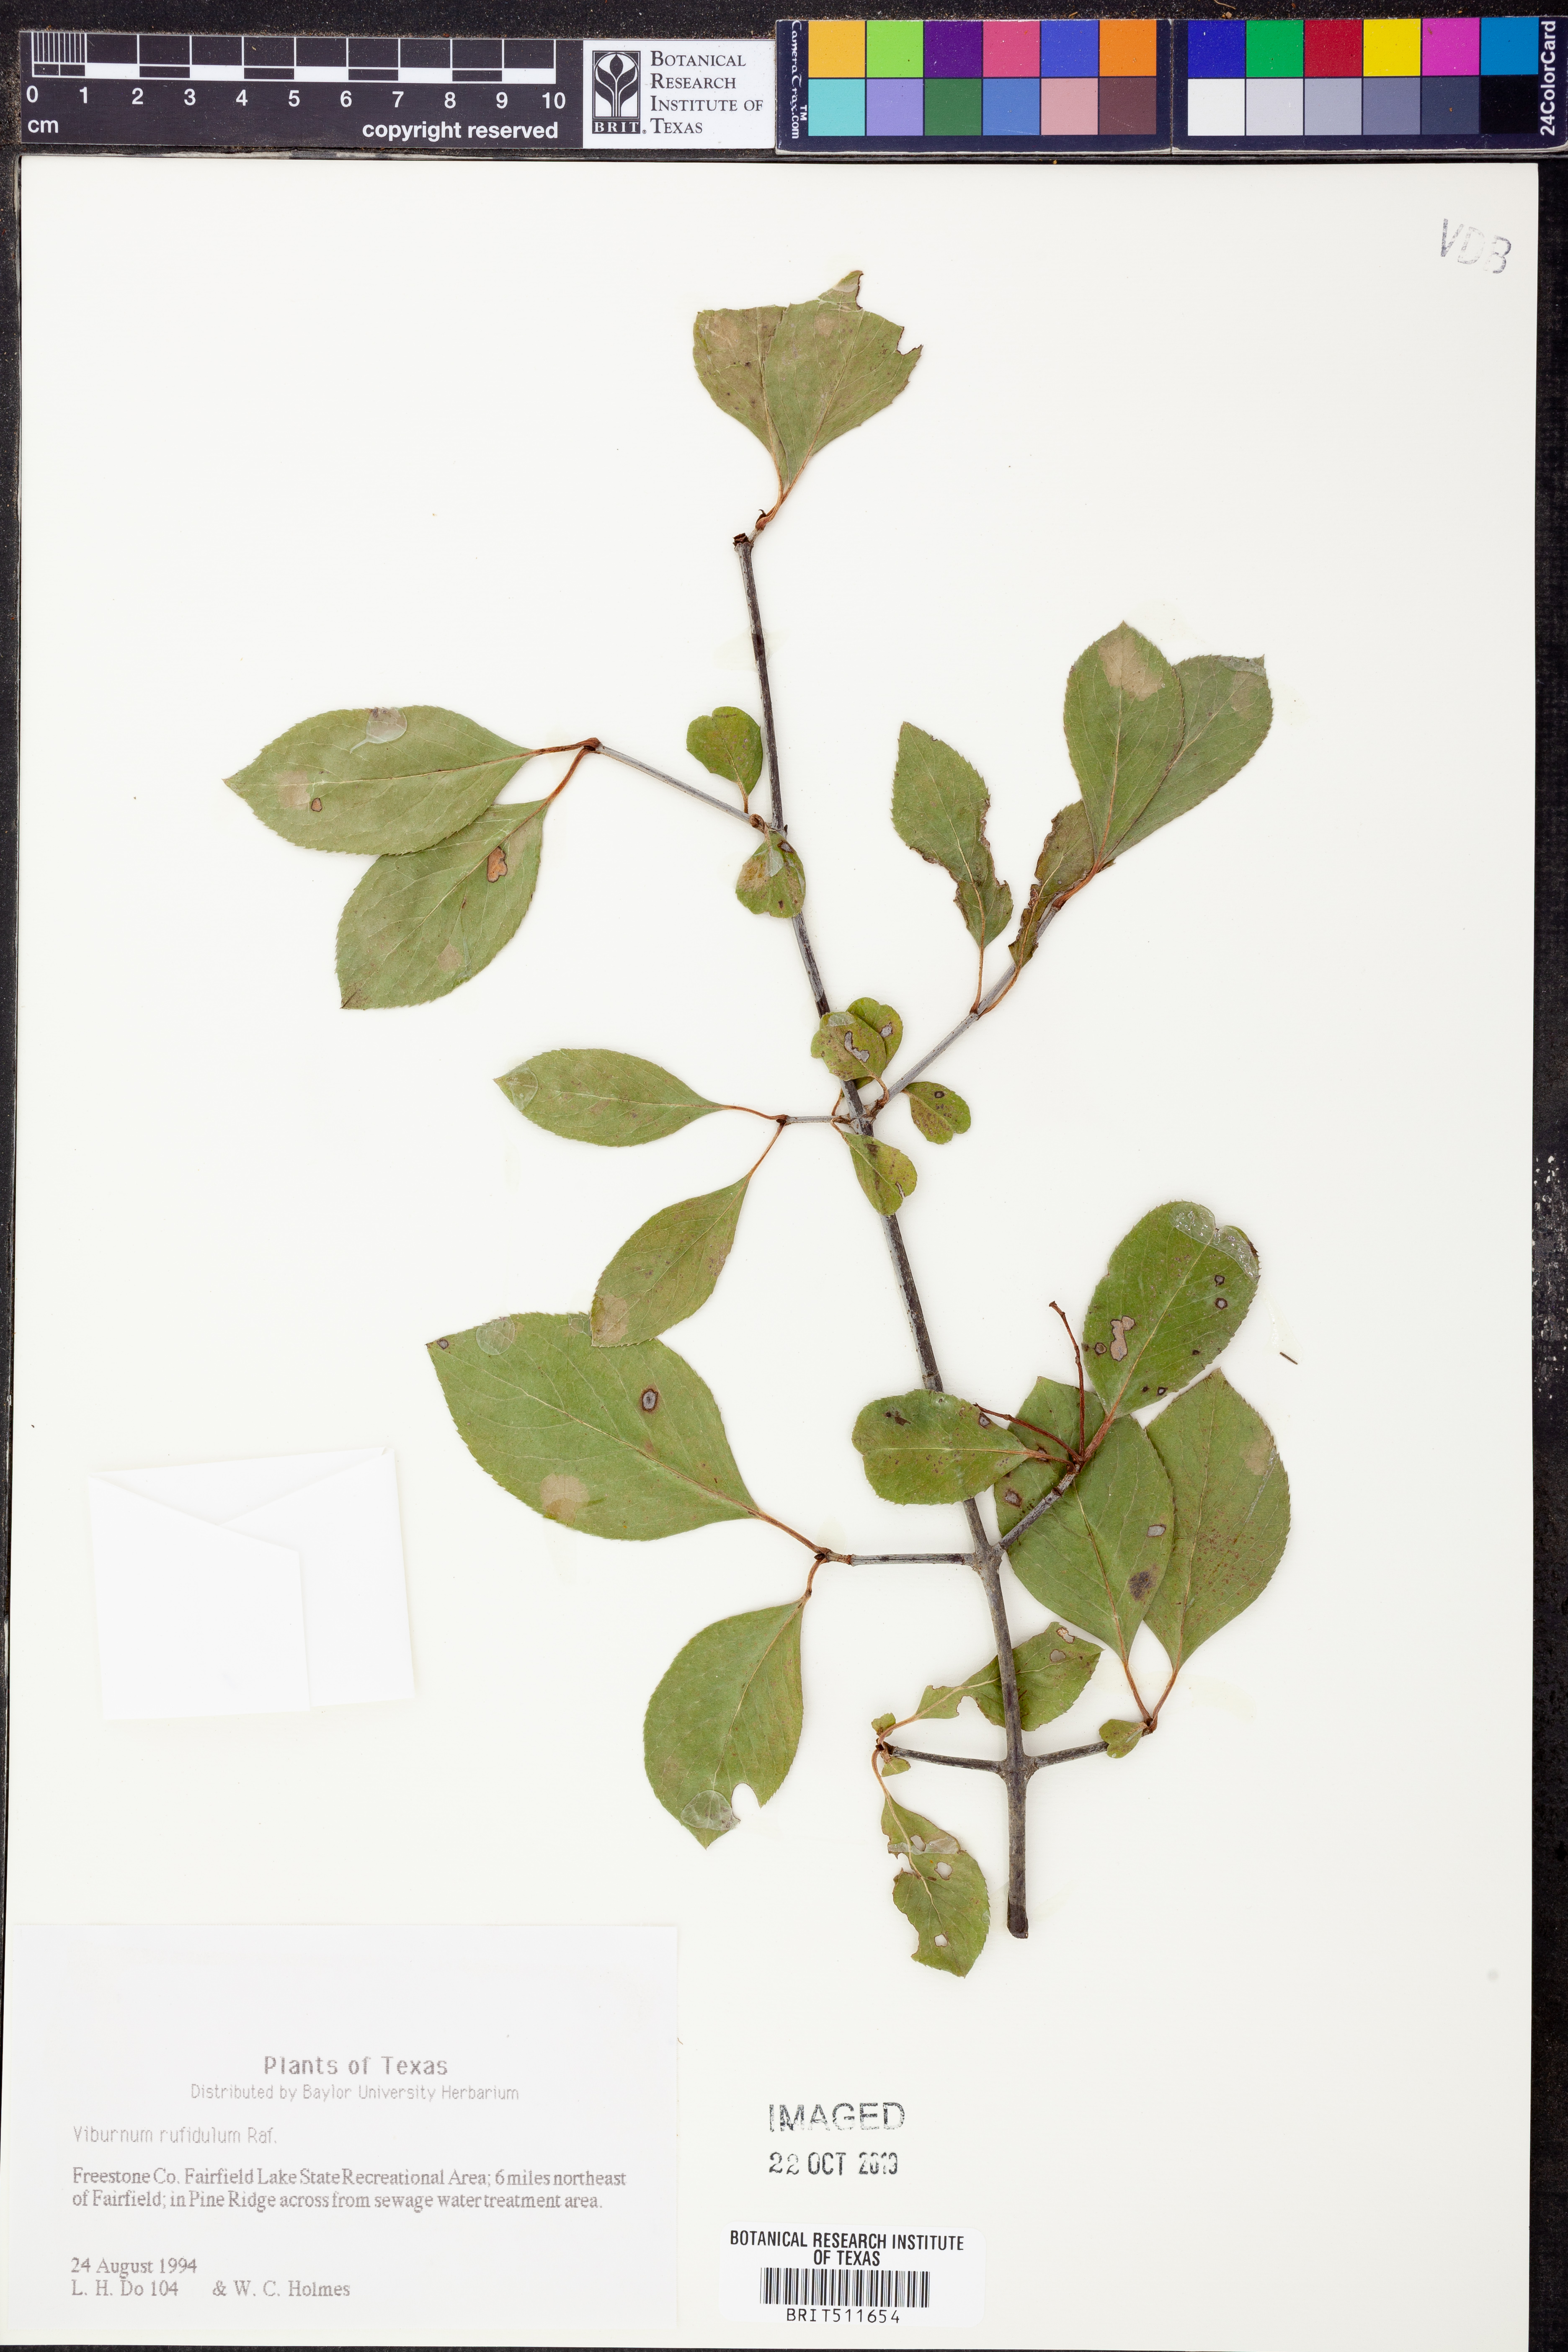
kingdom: Plantae
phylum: Tracheophyta
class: Magnoliopsida
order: Dipsacales
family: Viburnaceae
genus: Viburnum
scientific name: Viburnum rufidulum
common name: Blue haw
